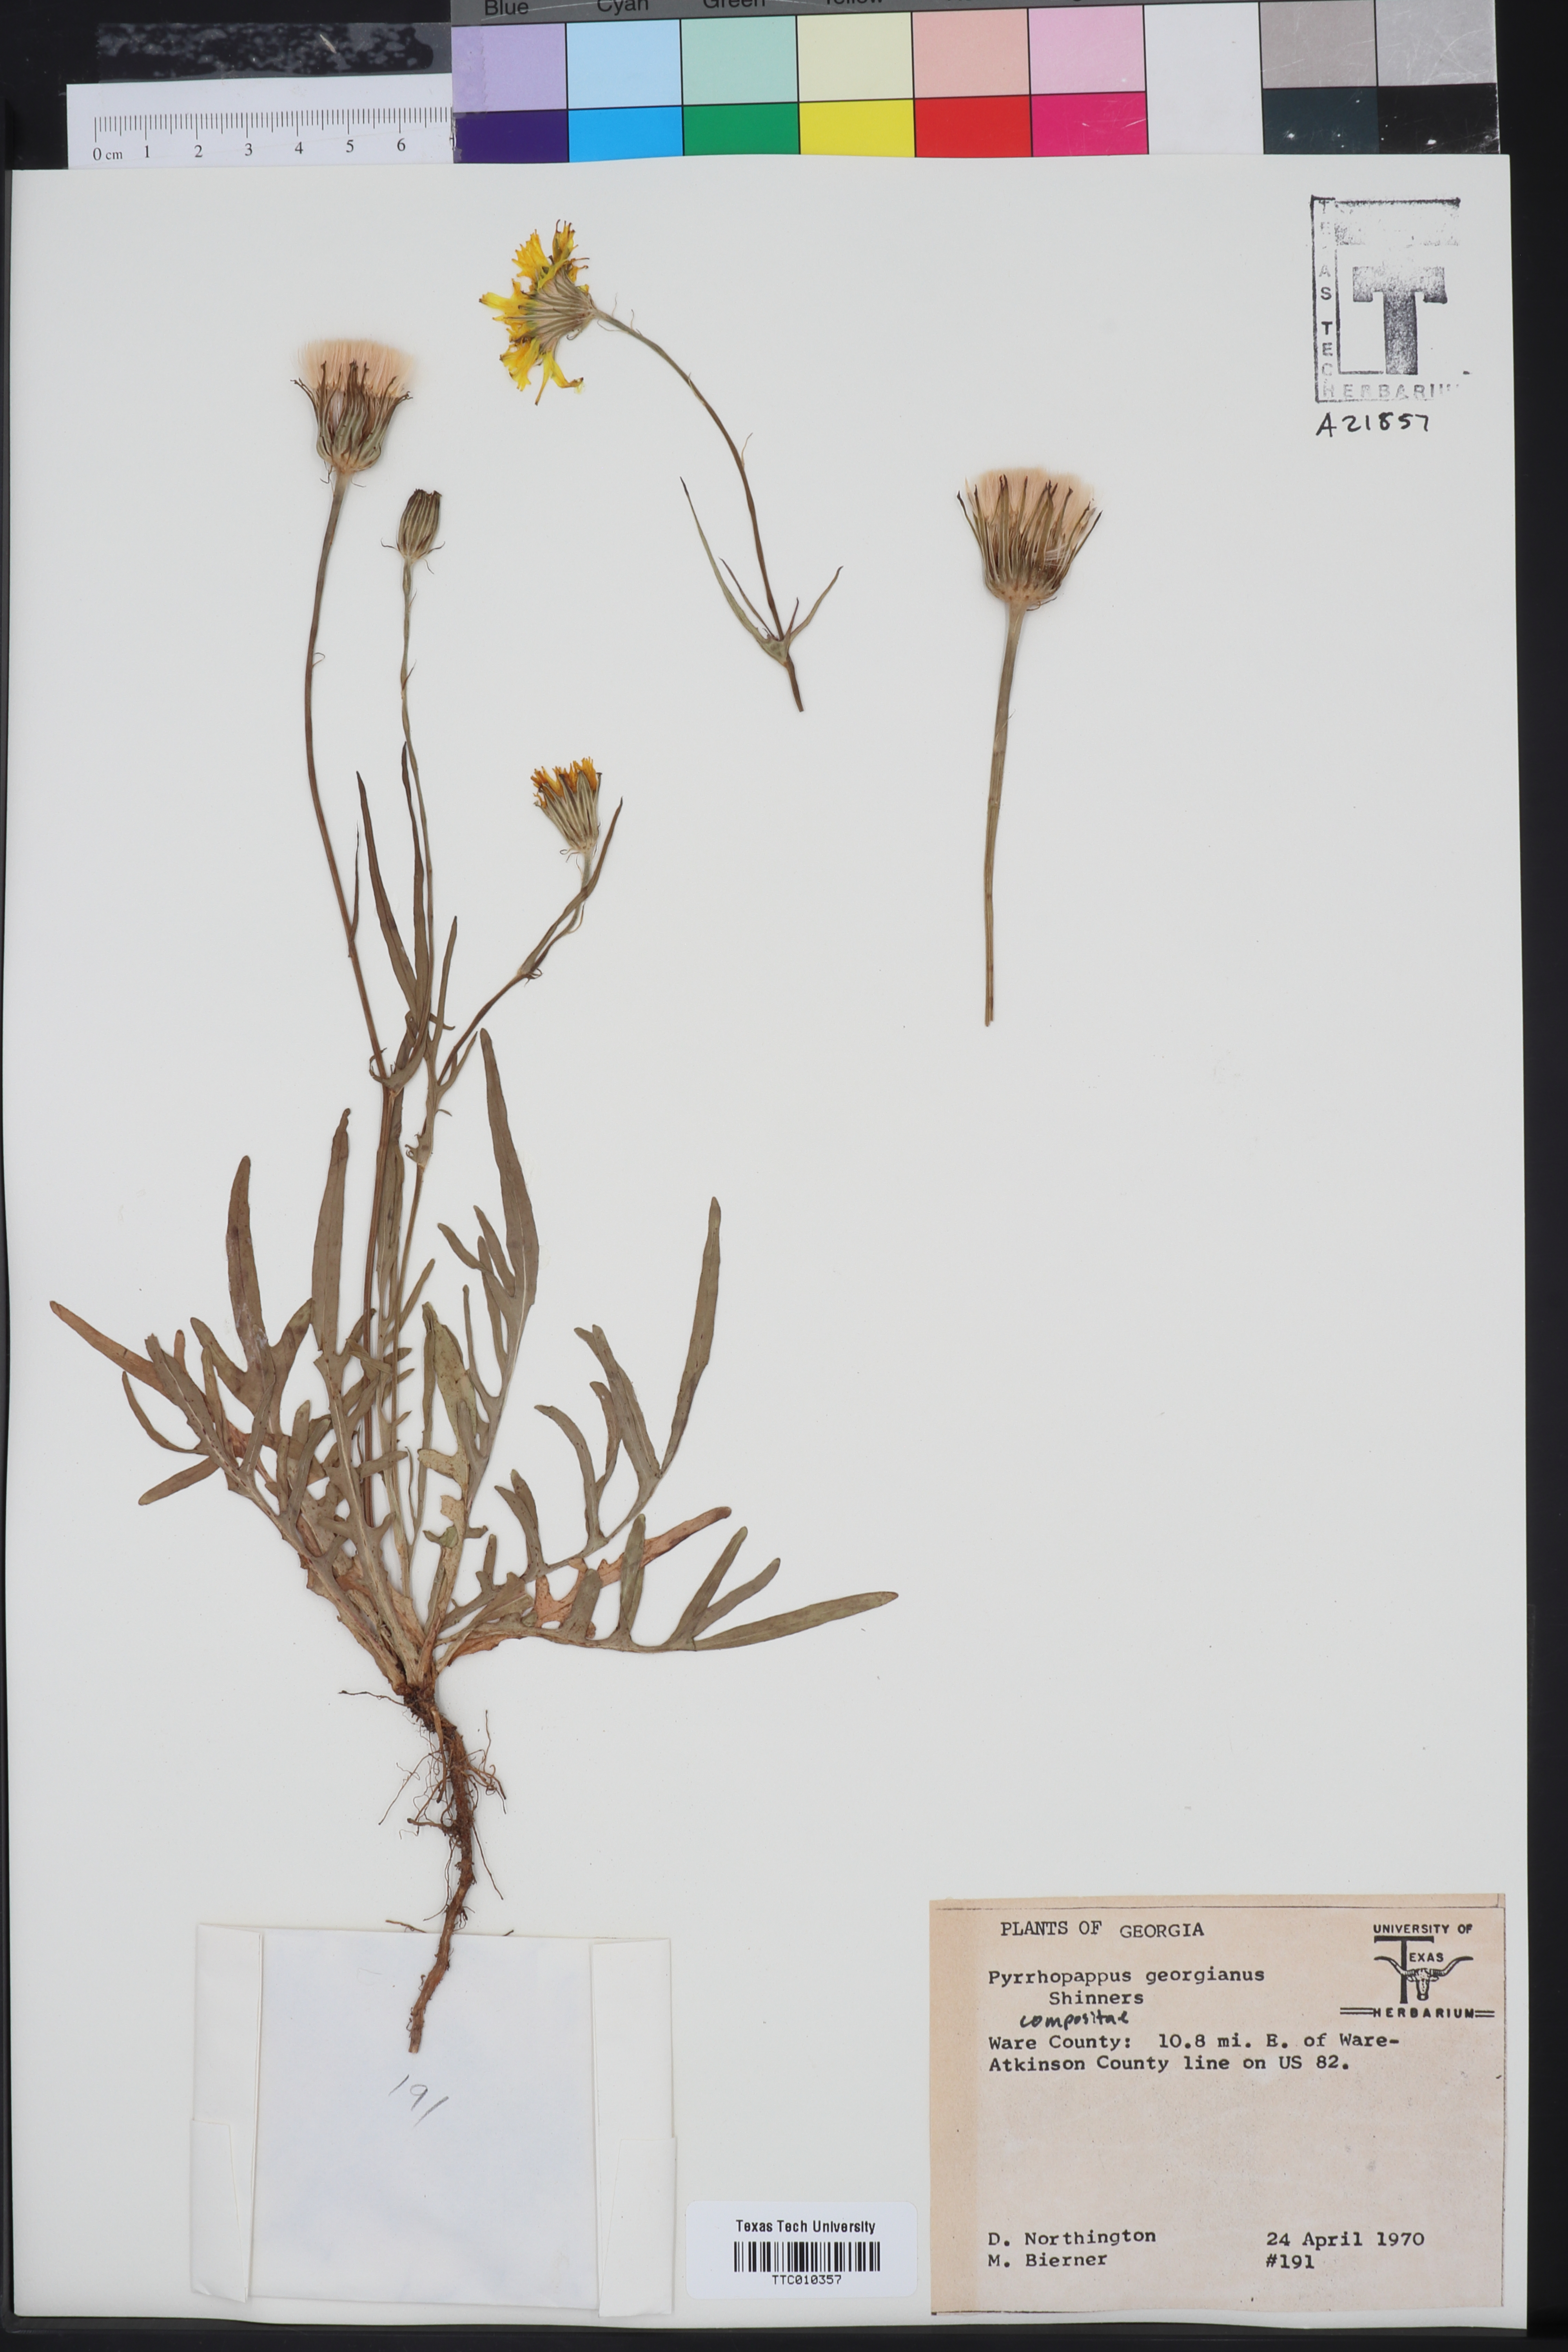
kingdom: Plantae
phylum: Tracheophyta
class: Magnoliopsida
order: Asterales
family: Asteraceae
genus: Pyrrhopappus
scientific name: Pyrrhopappus carolinianus
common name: Carolina desert-chicory
